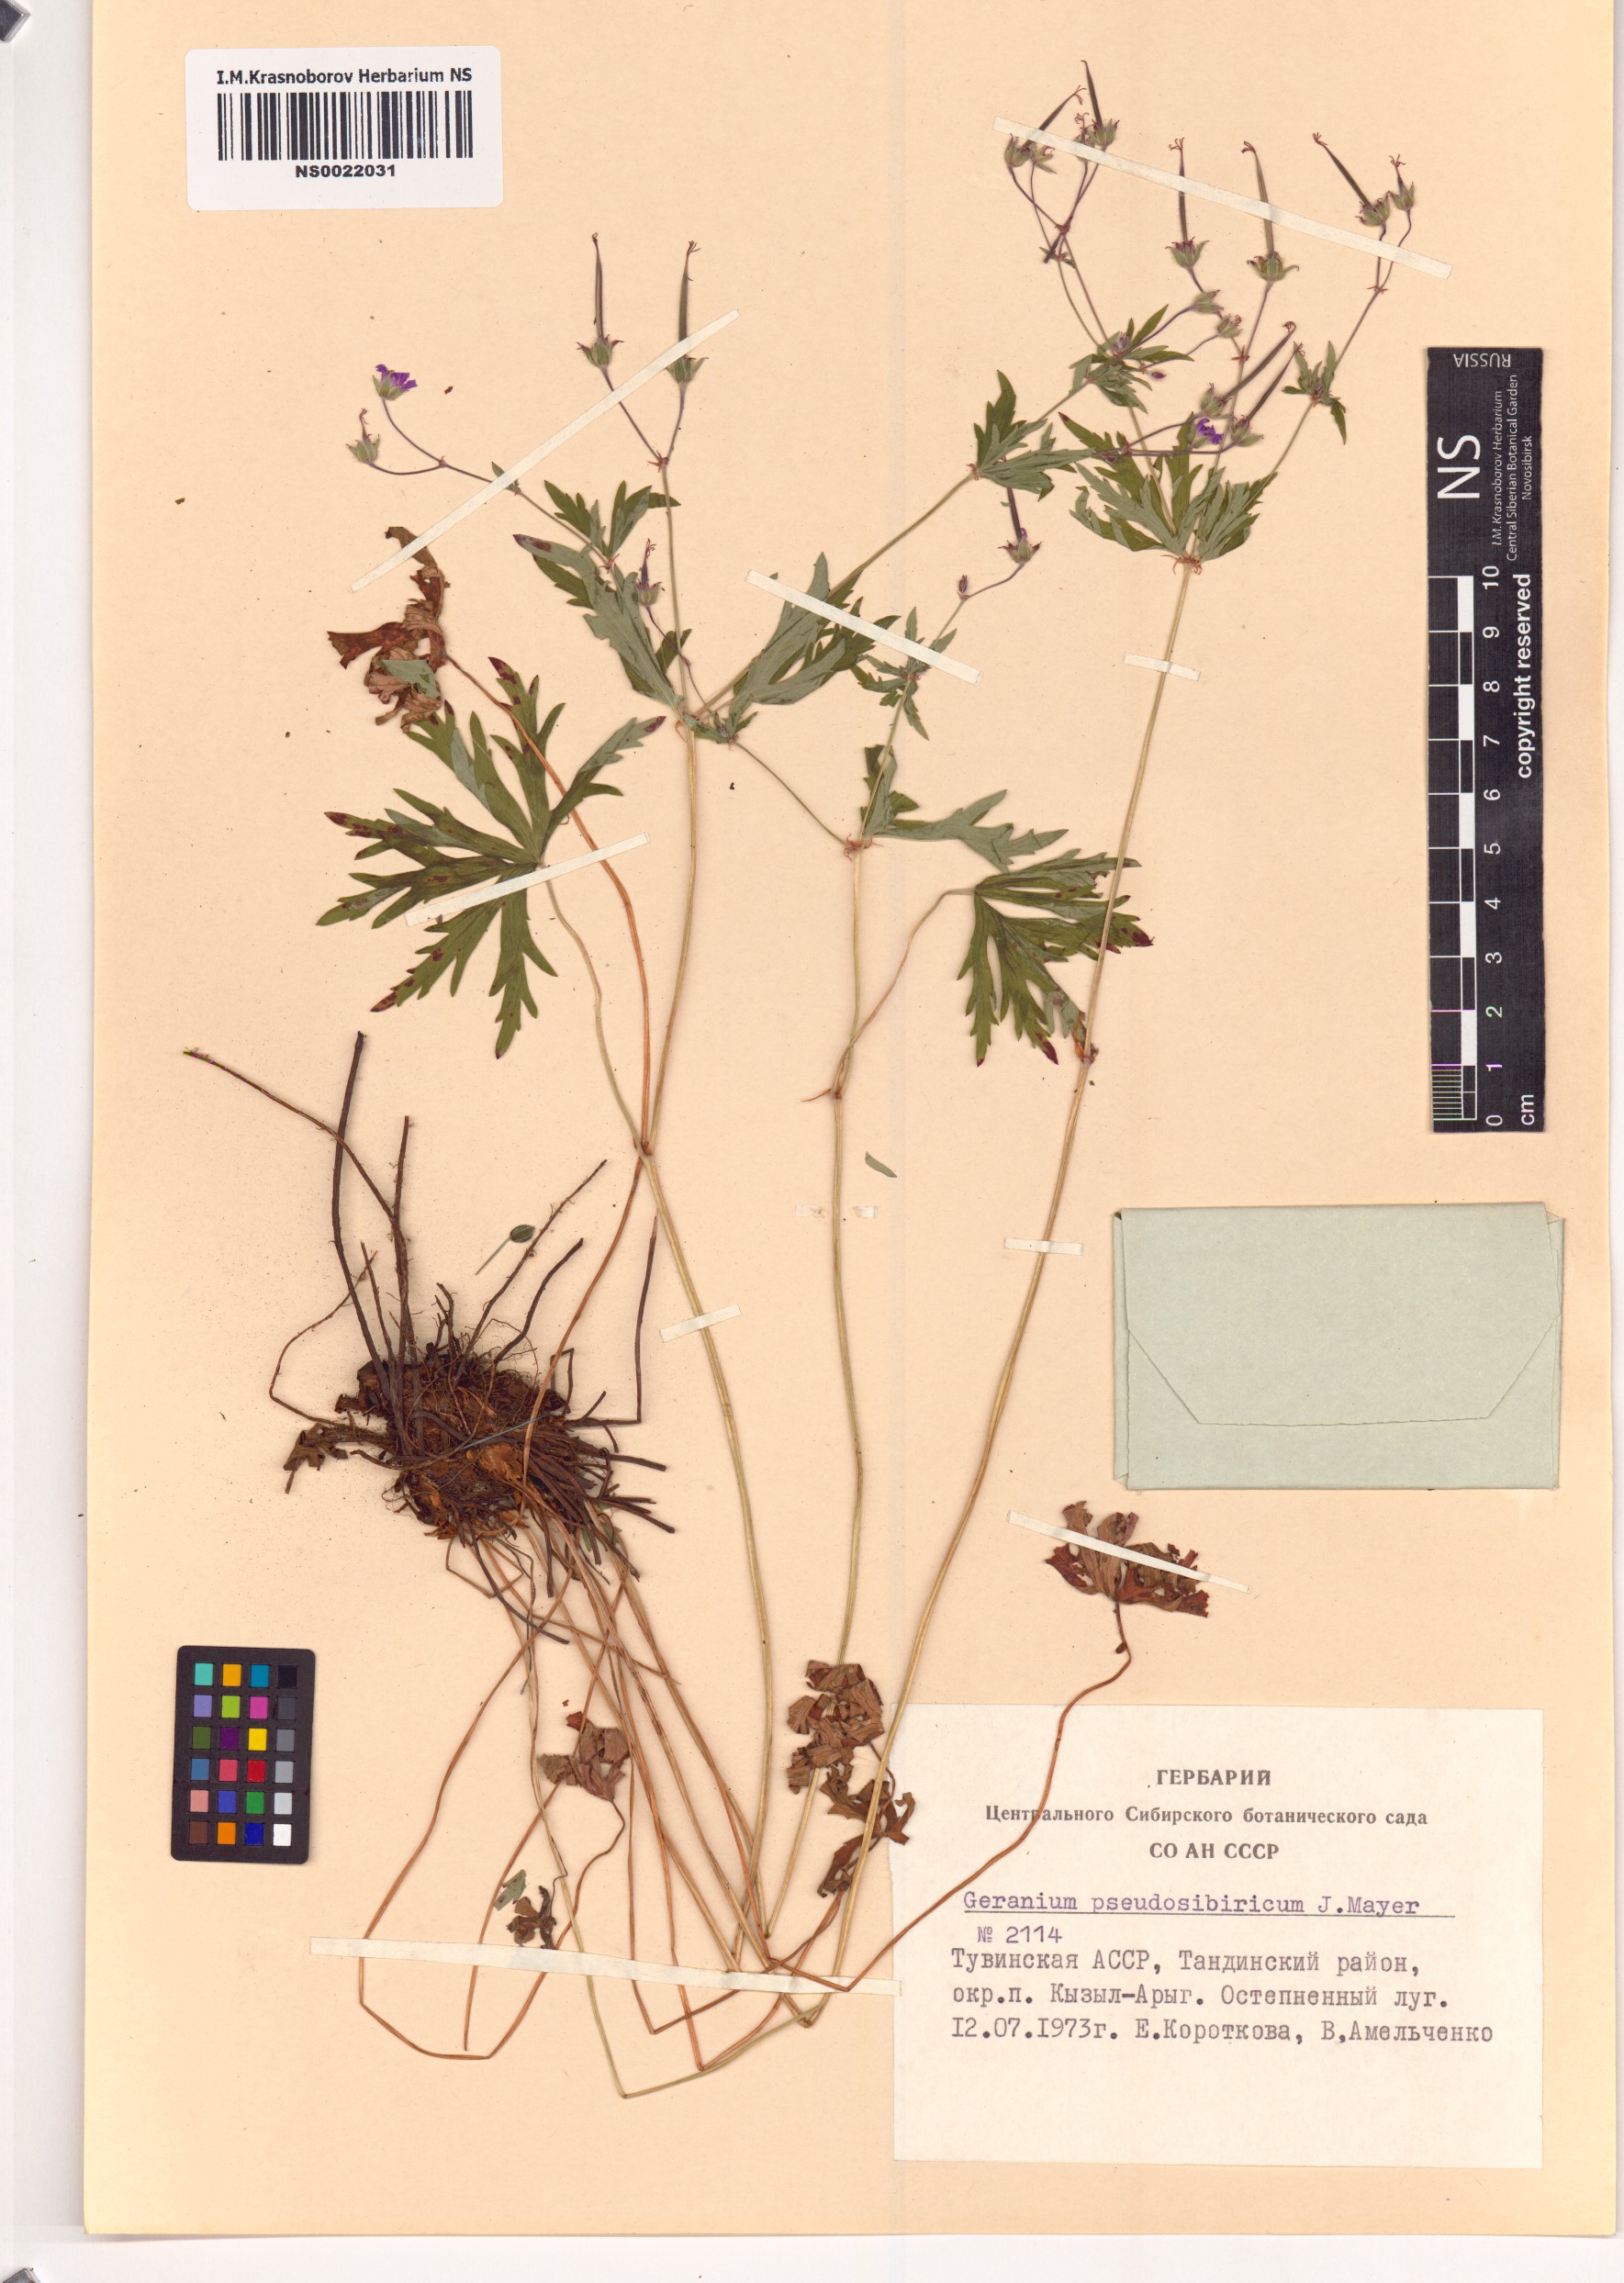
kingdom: Plantae
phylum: Tracheophyta
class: Magnoliopsida
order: Geraniales
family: Geraniaceae
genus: Geranium
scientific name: Geranium pseudosibiricum
